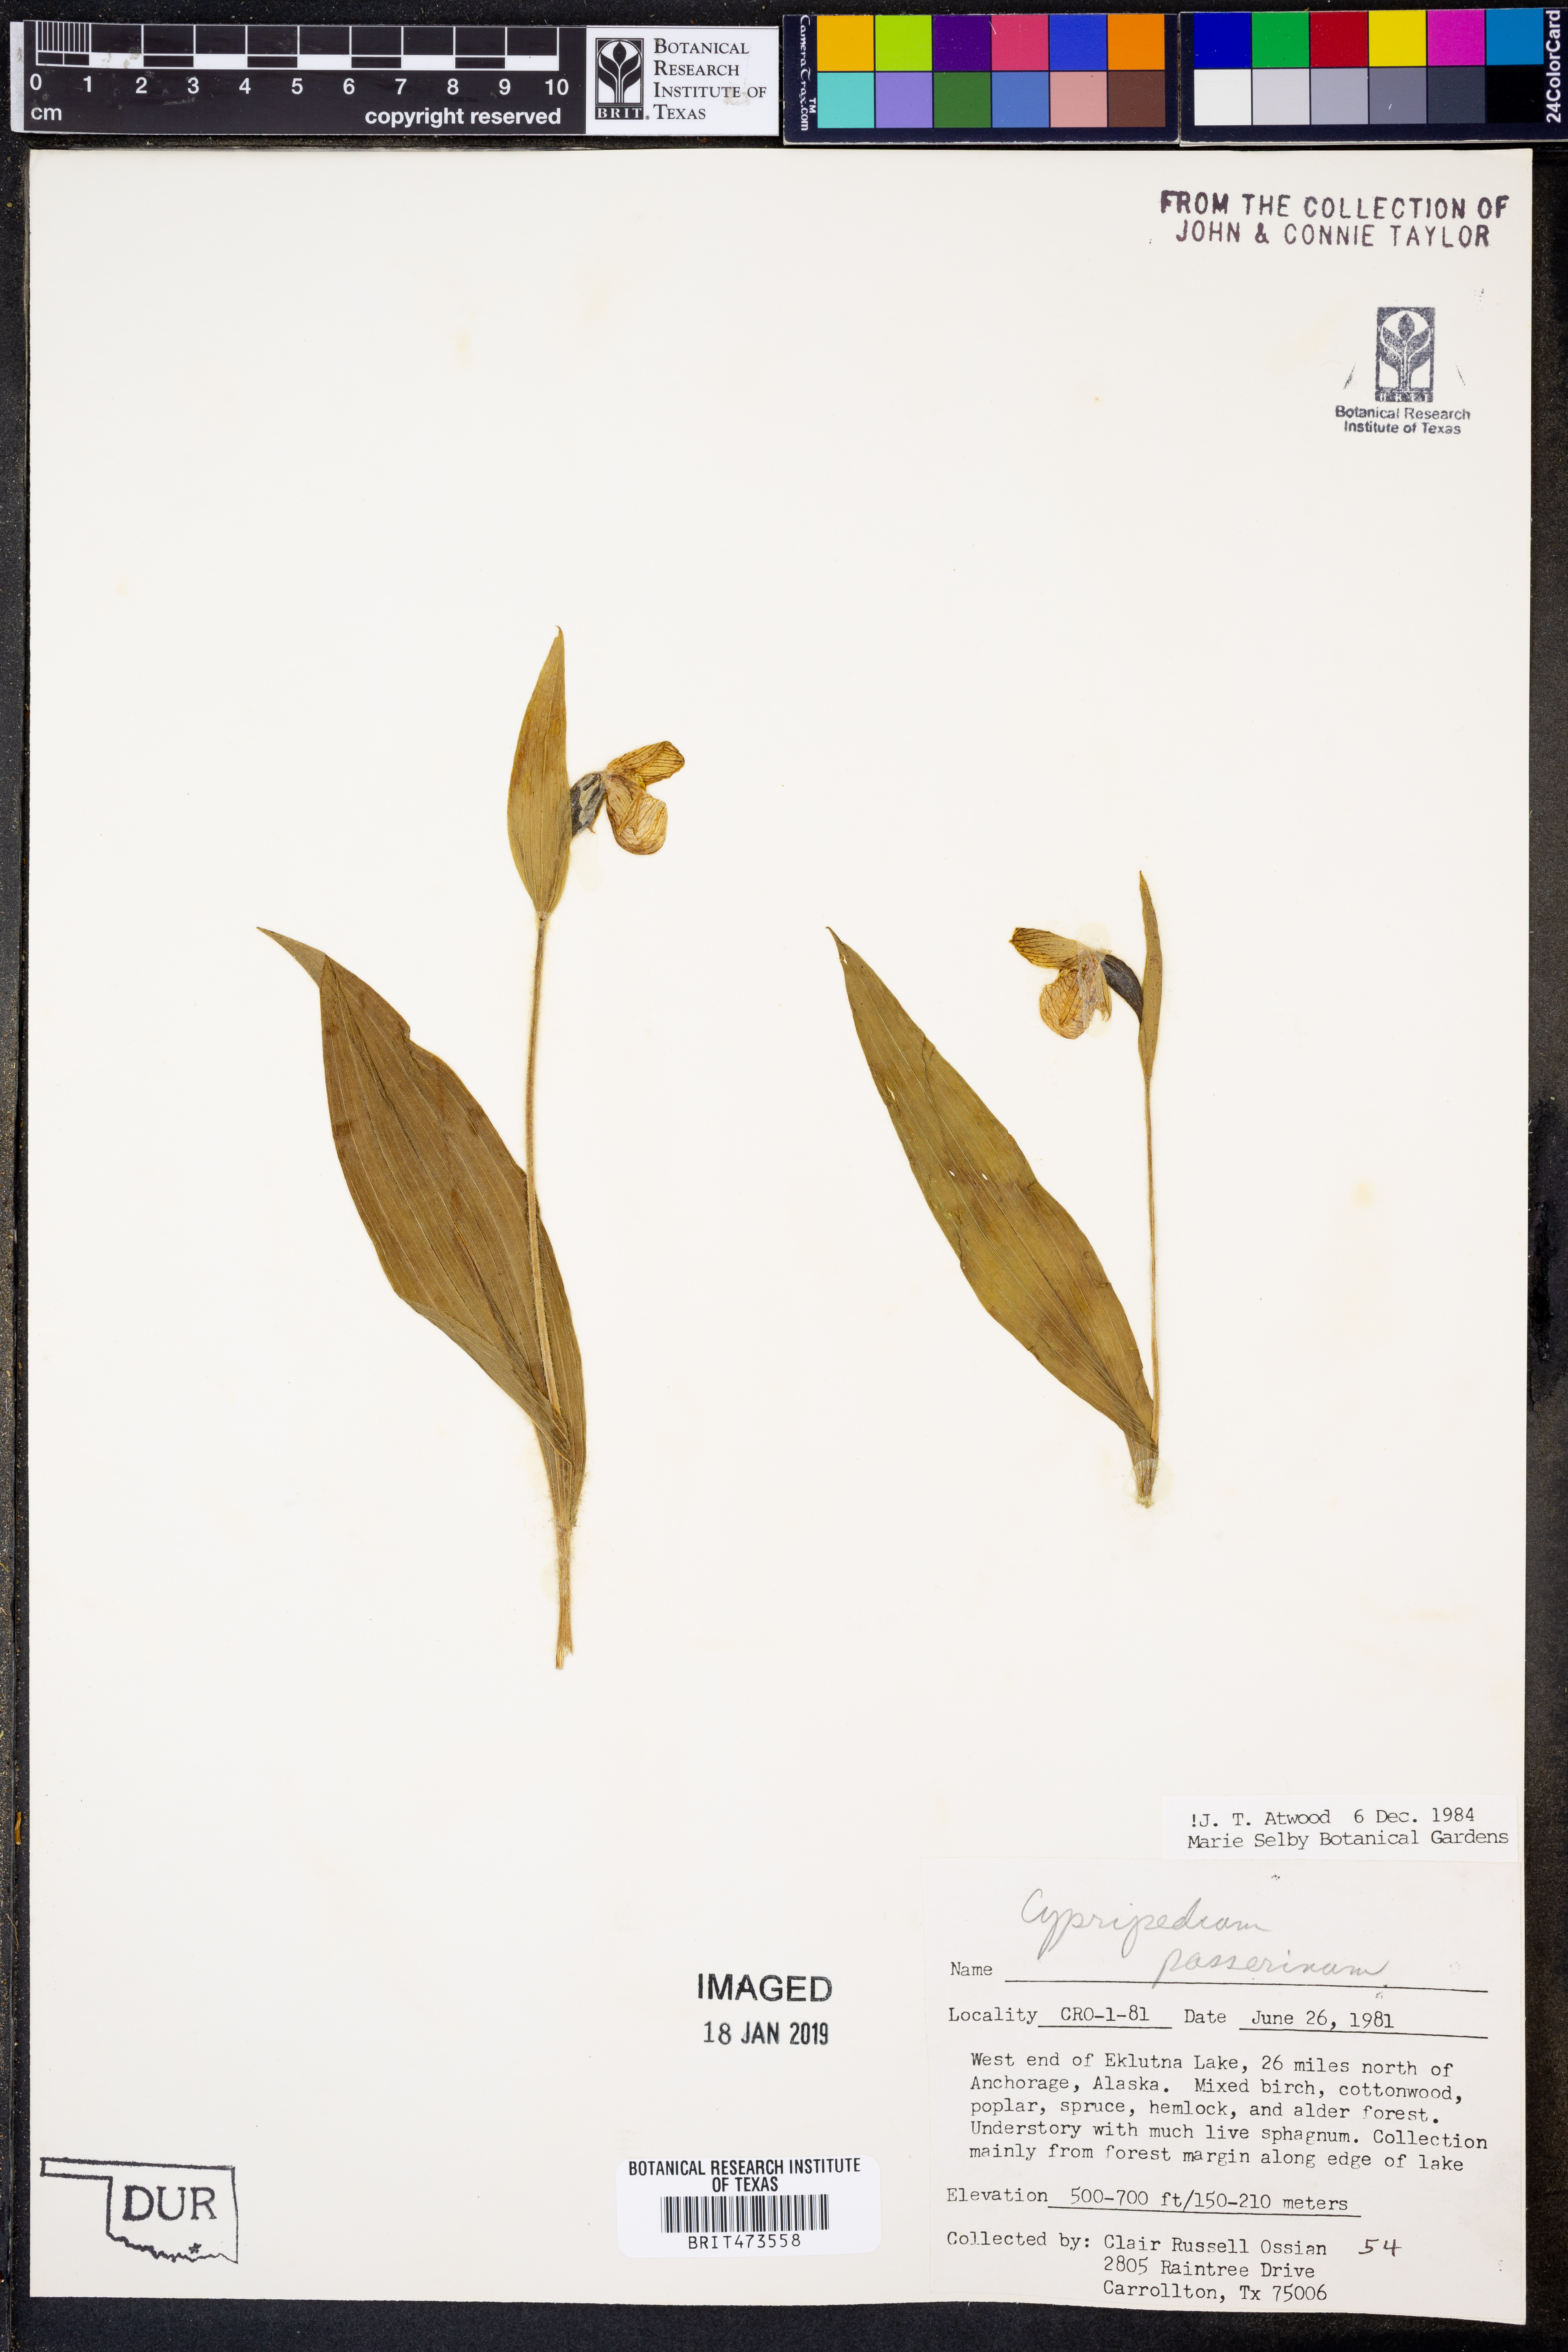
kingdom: Plantae
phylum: Tracheophyta
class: Liliopsida
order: Asparagales
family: Orchidaceae
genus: Cypripedium
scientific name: Cypripedium passerinum
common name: Sparrow's-egg lady's-slipper
